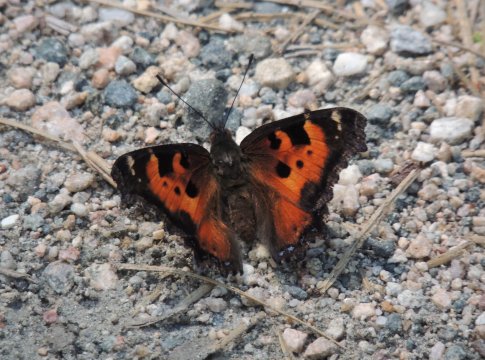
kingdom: Animalia
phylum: Arthropoda
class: Insecta
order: Lepidoptera
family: Nymphalidae
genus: Nymphalis
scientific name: Nymphalis californica
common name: California Tortoiseshell
